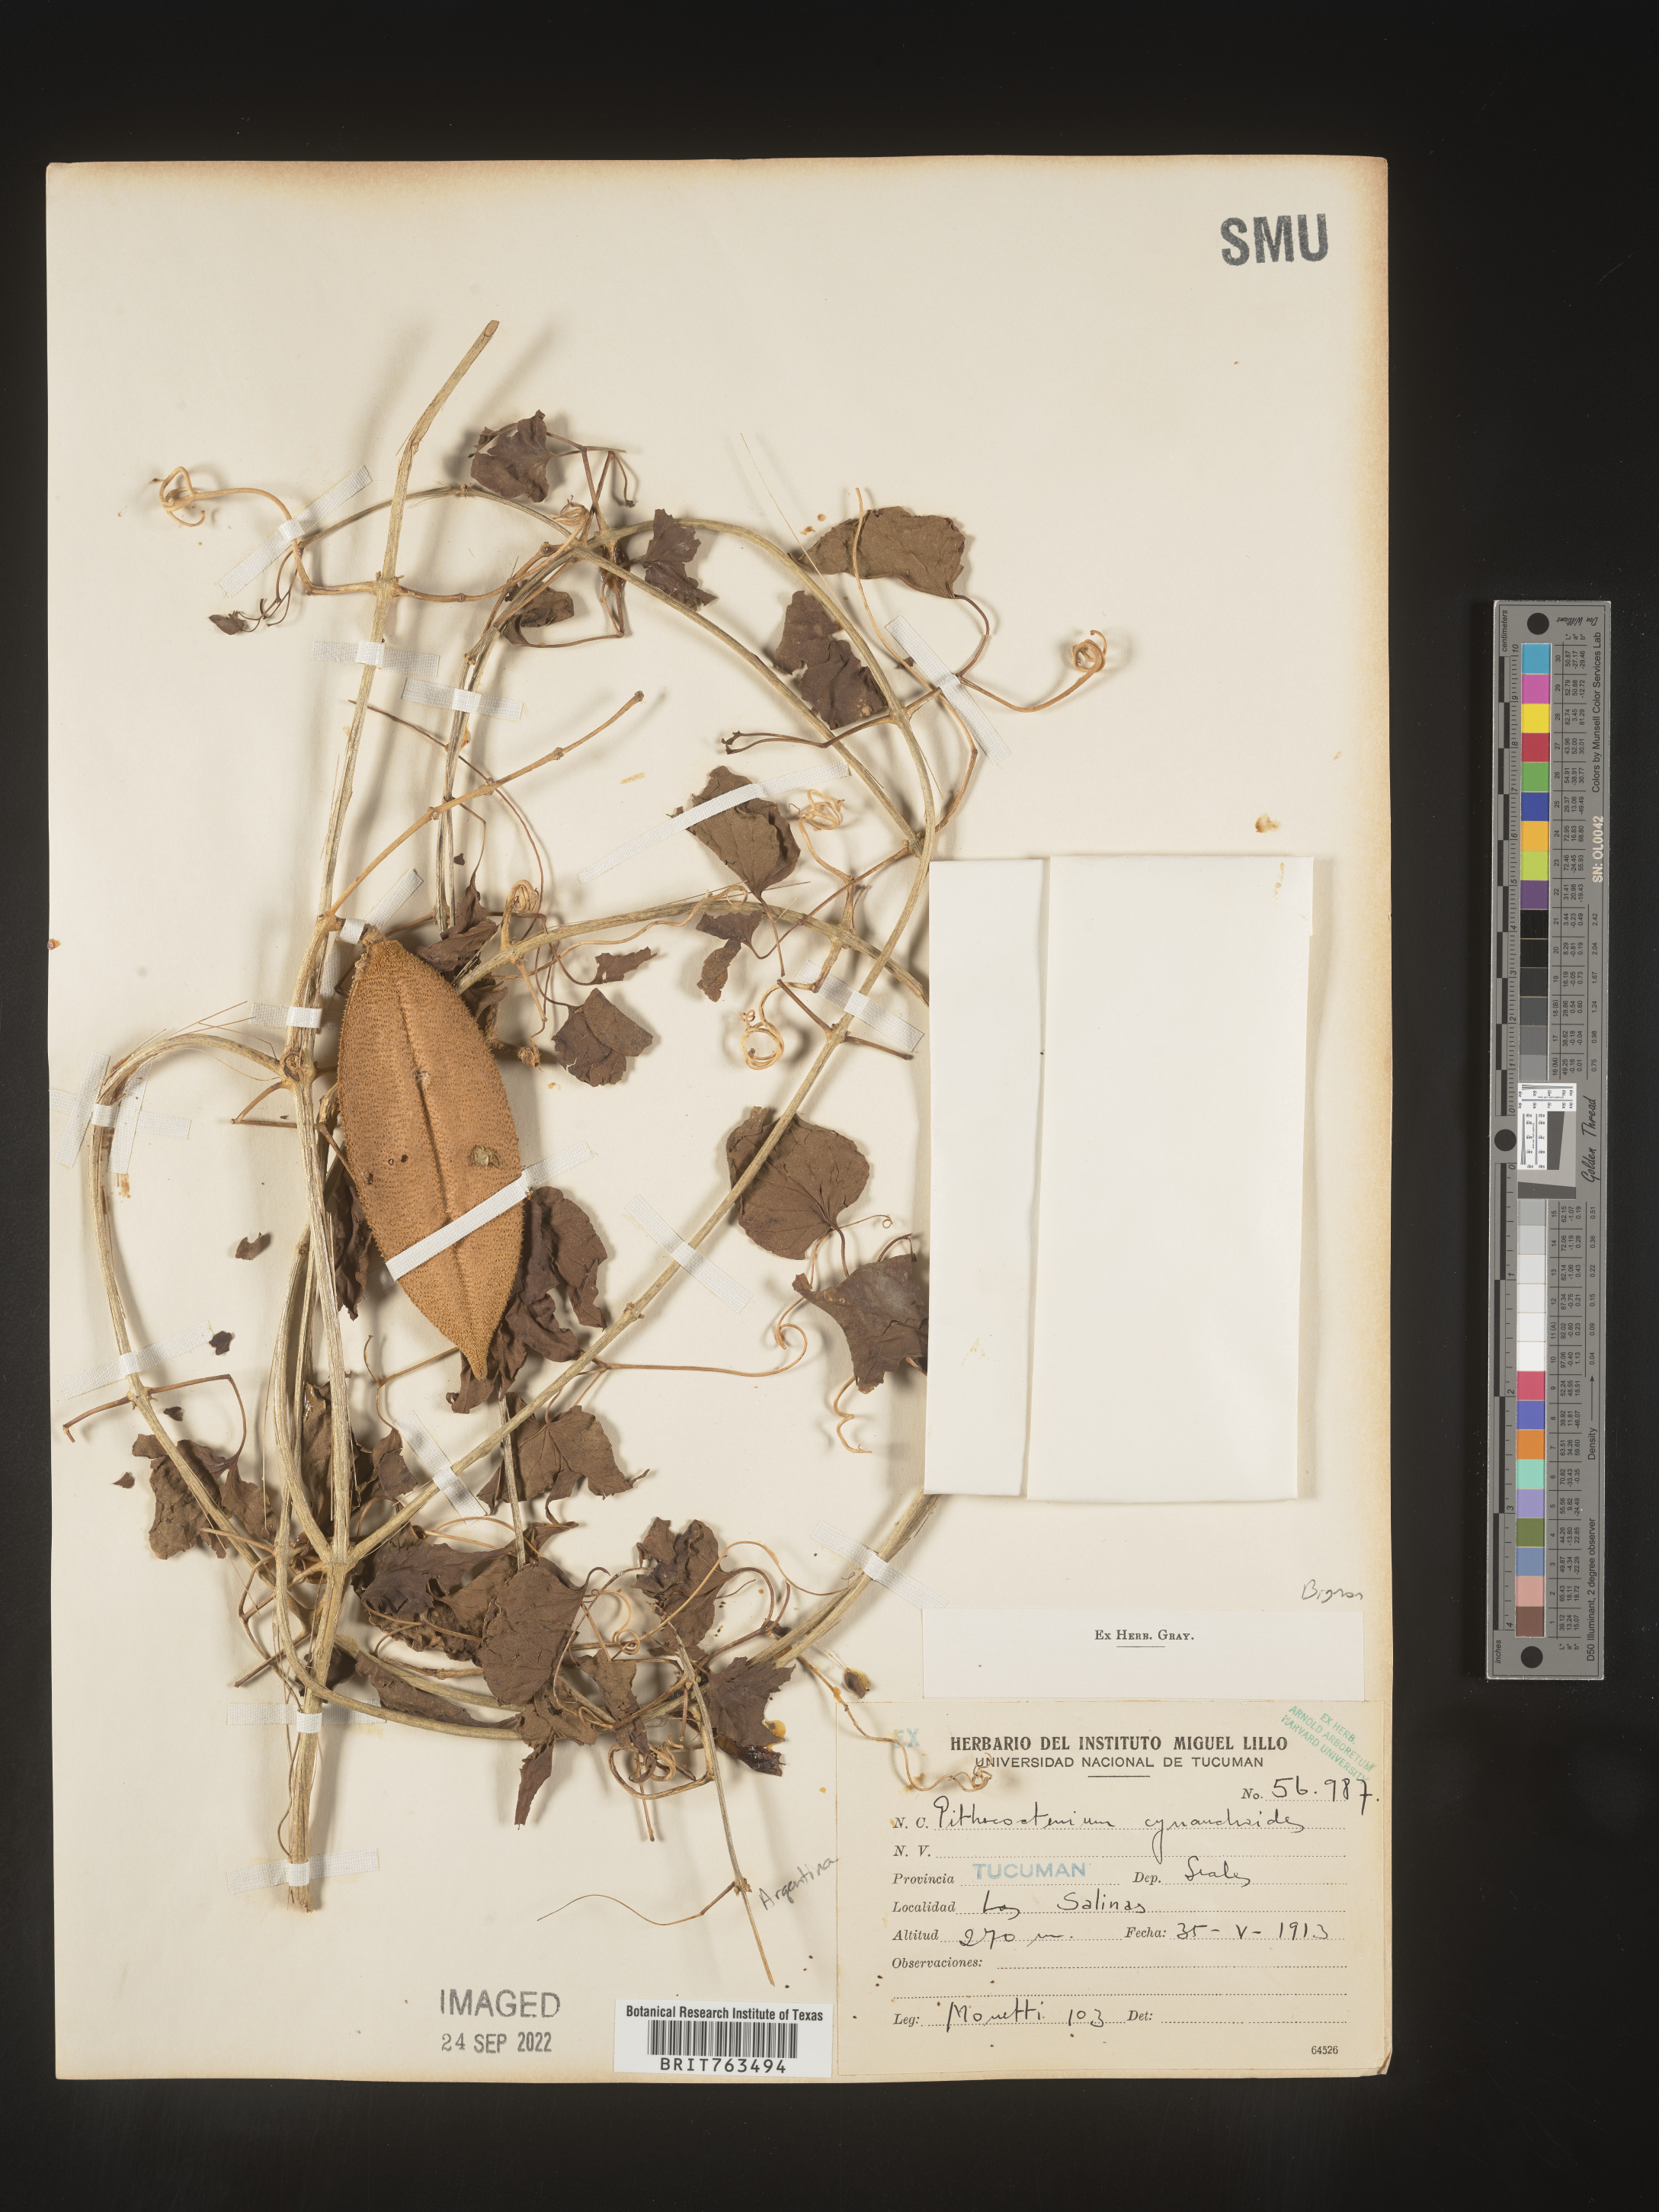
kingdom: Plantae
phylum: Tracheophyta
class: Magnoliopsida
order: Lamiales
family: Bignoniaceae
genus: Pithecoctenium
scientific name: Pithecoctenium
